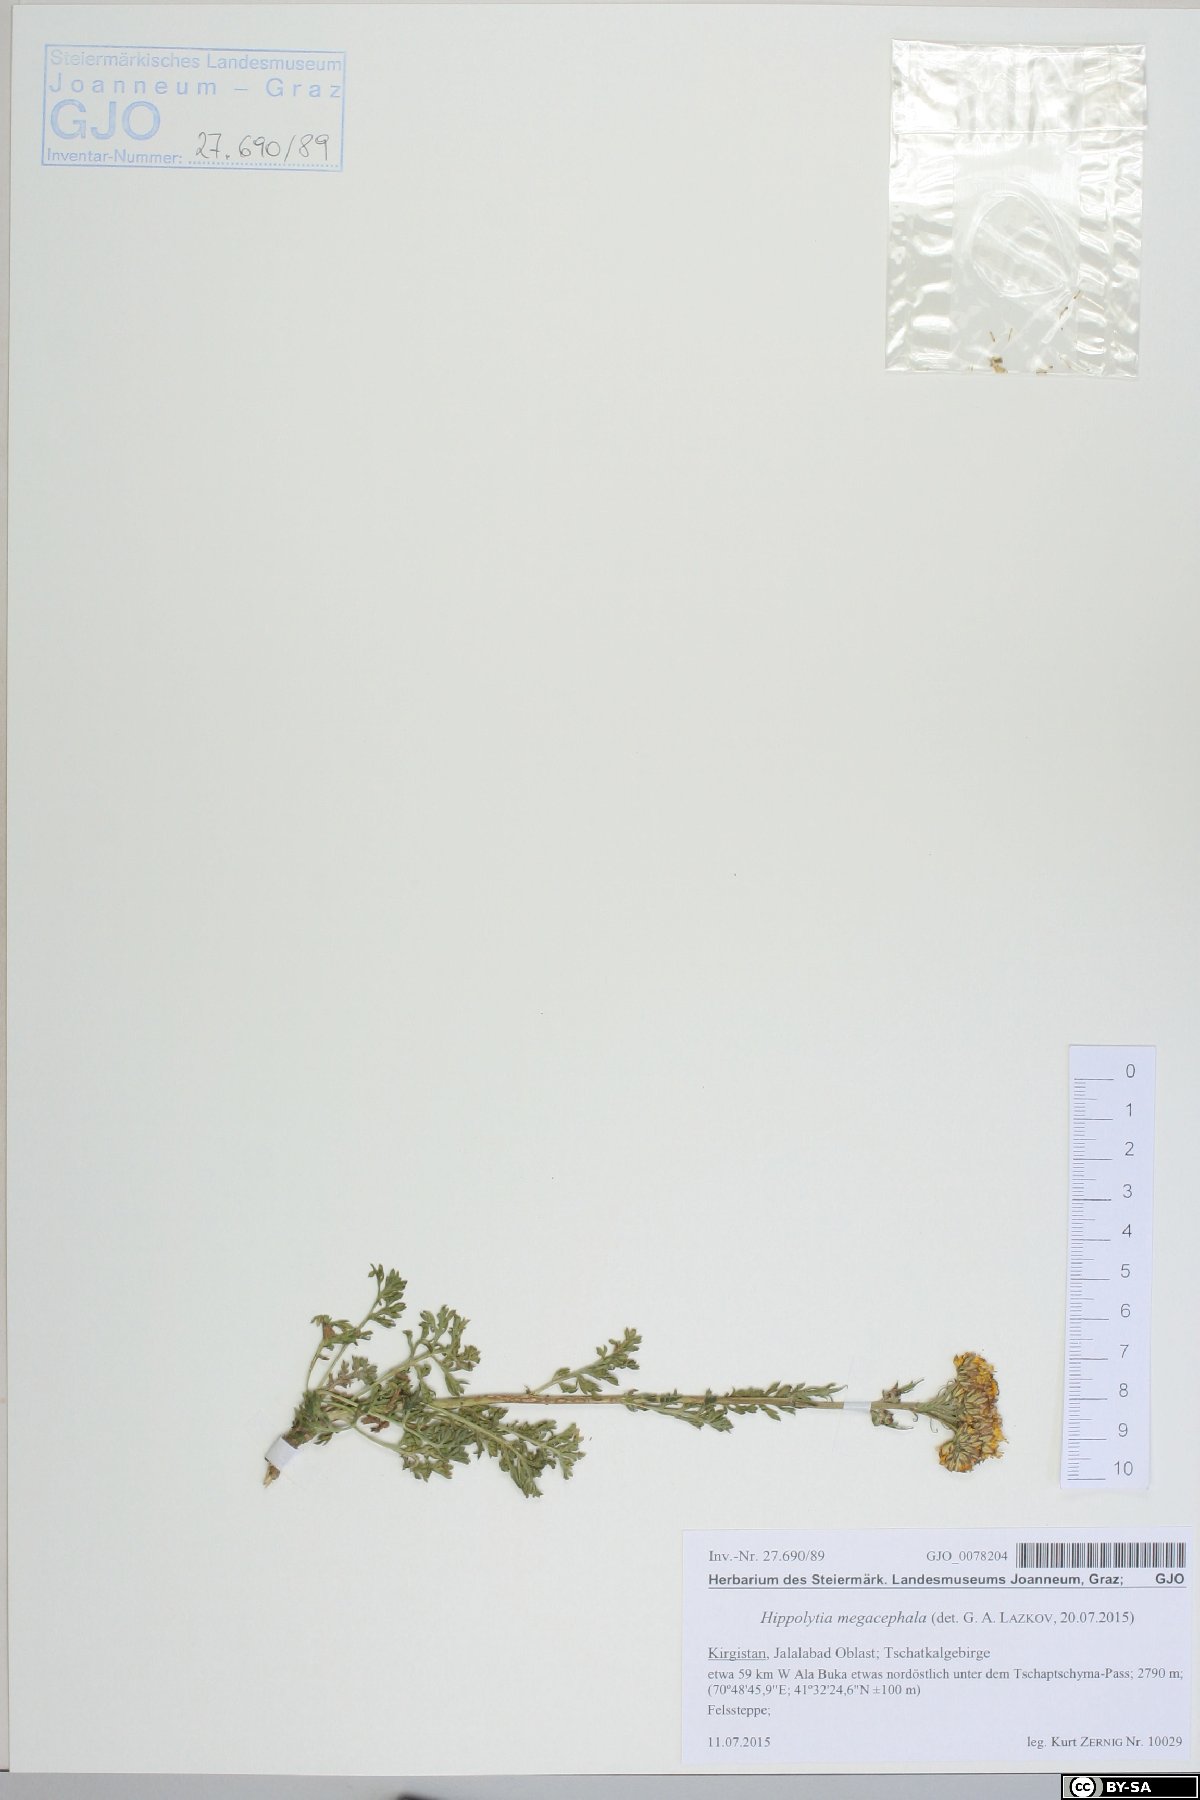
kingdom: Plantae
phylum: Tracheophyta
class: Magnoliopsida
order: Asterales
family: Asteraceae
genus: Hippolytia
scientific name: Hippolytia megacephala
